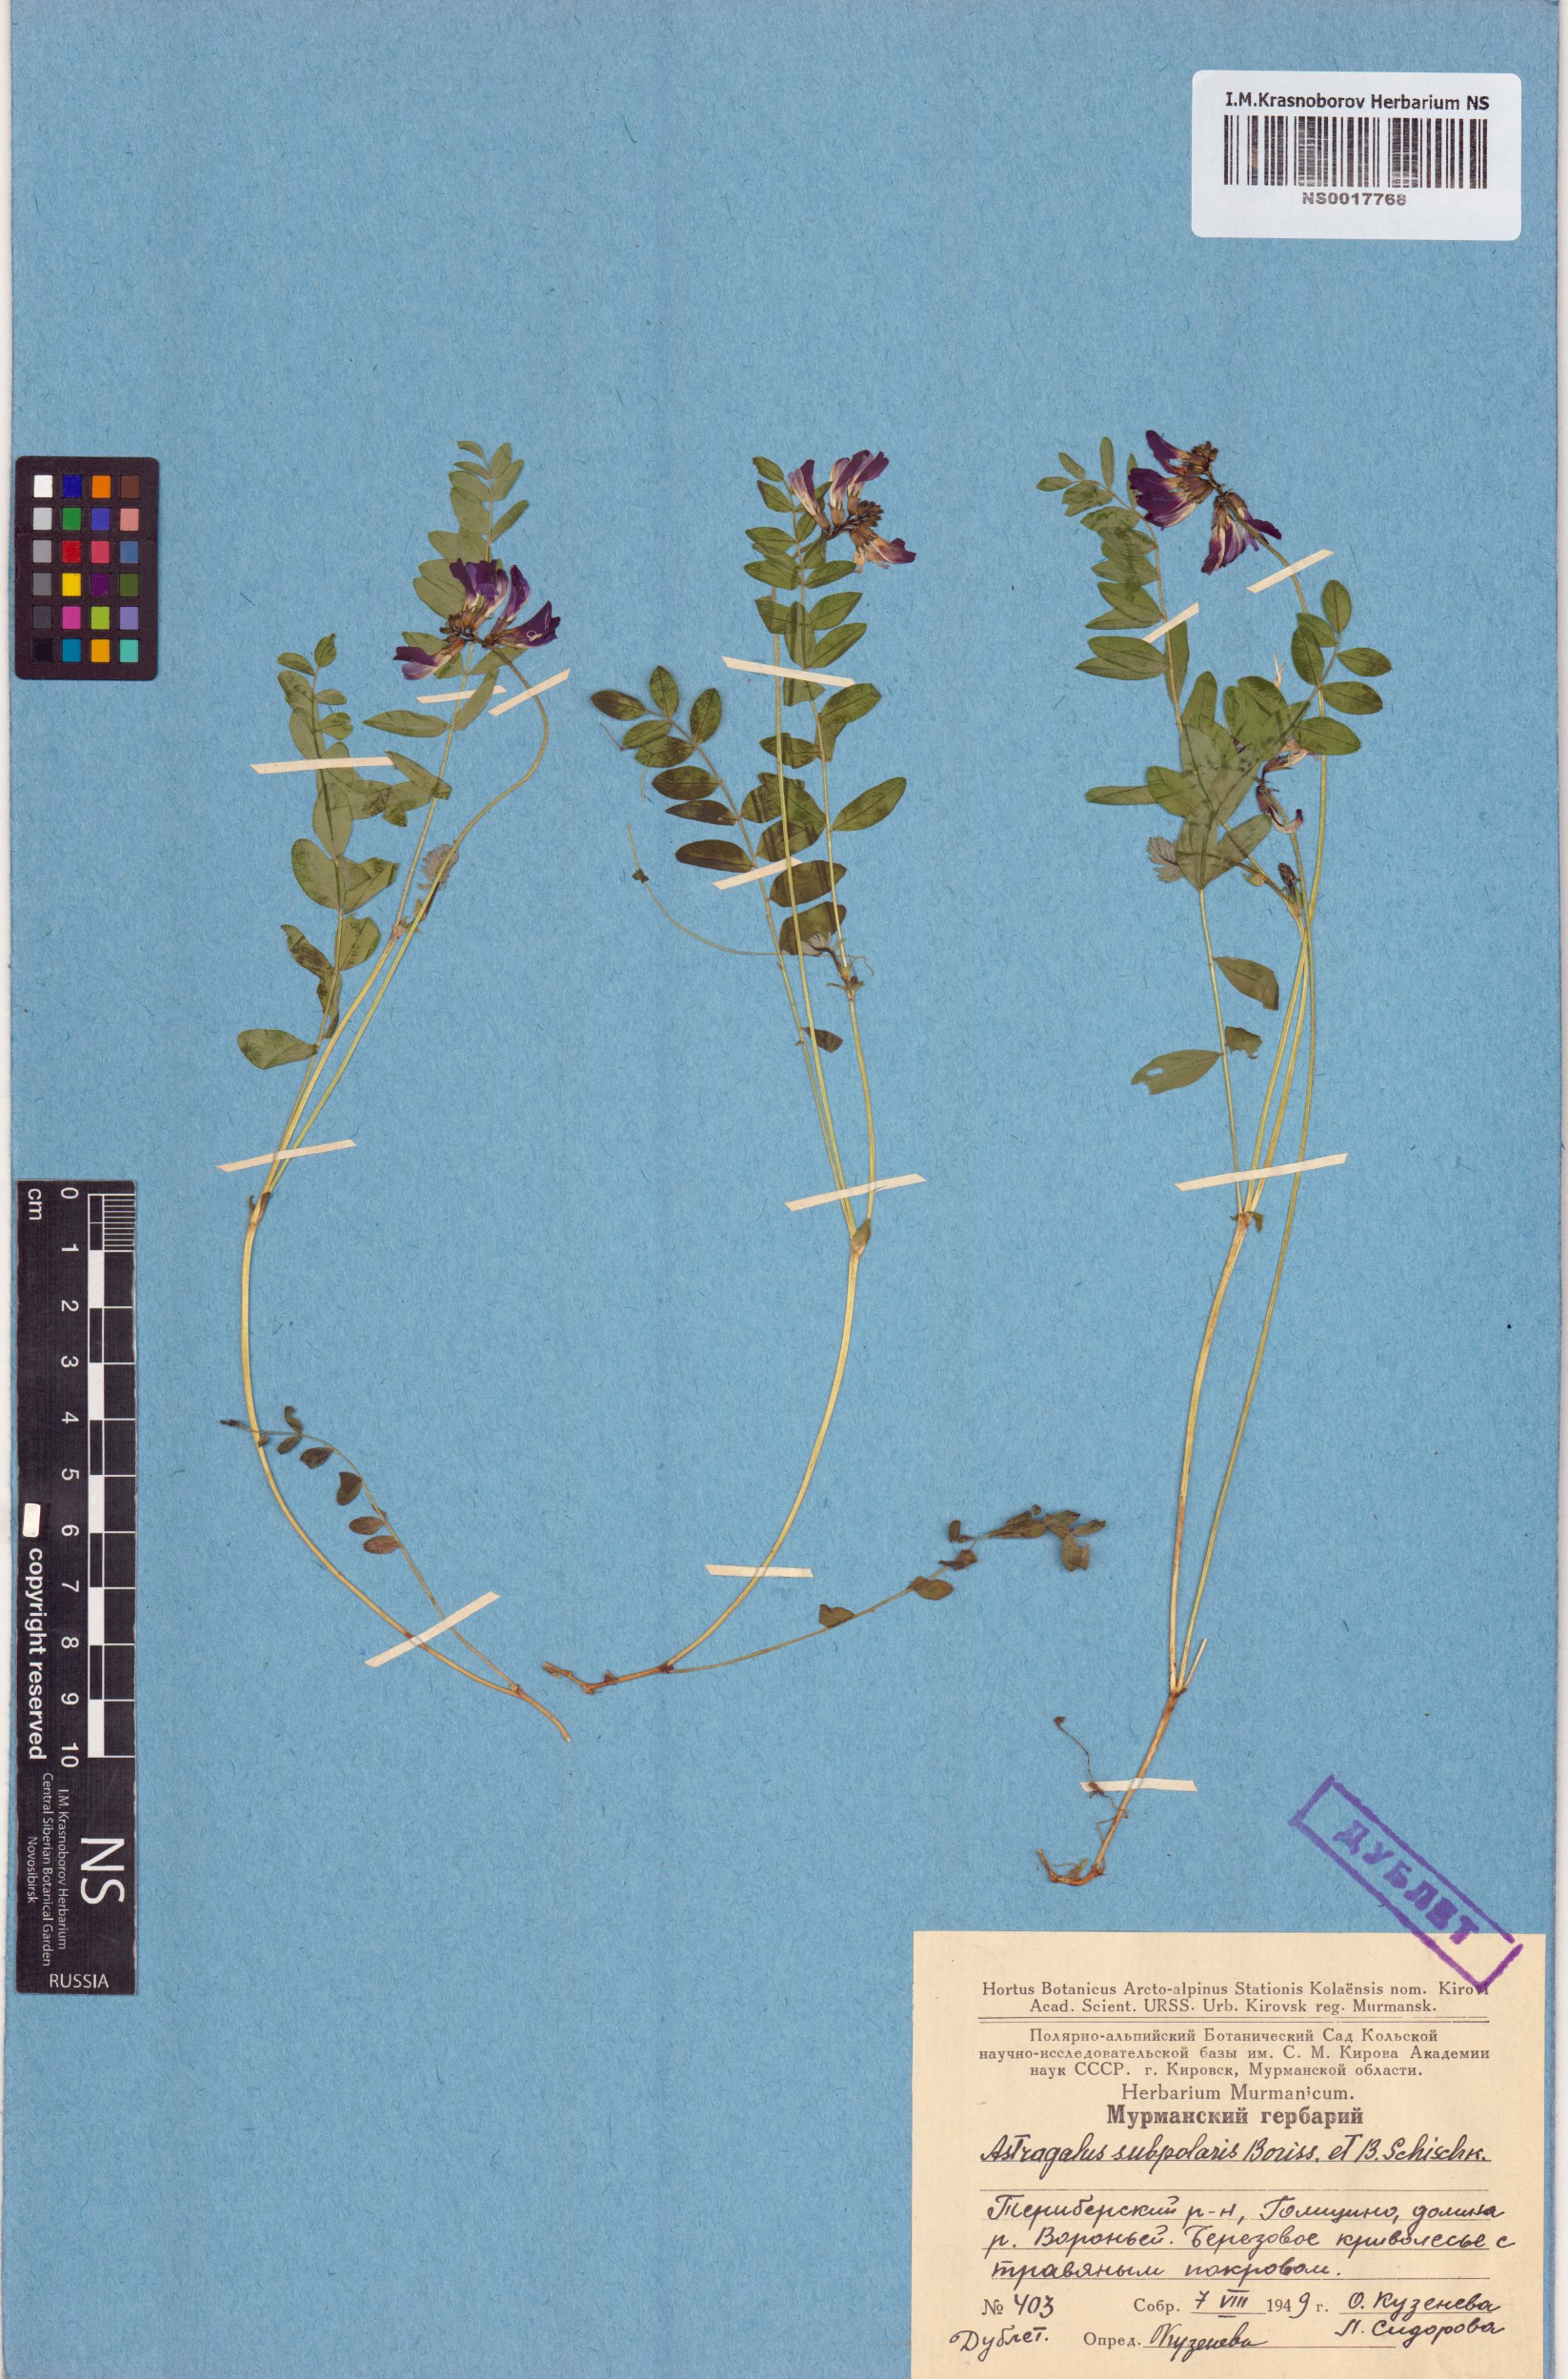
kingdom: Plantae
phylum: Tracheophyta
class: Magnoliopsida
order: Fabales
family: Fabaceae
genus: Astragalus
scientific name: Astragalus norvegicus
